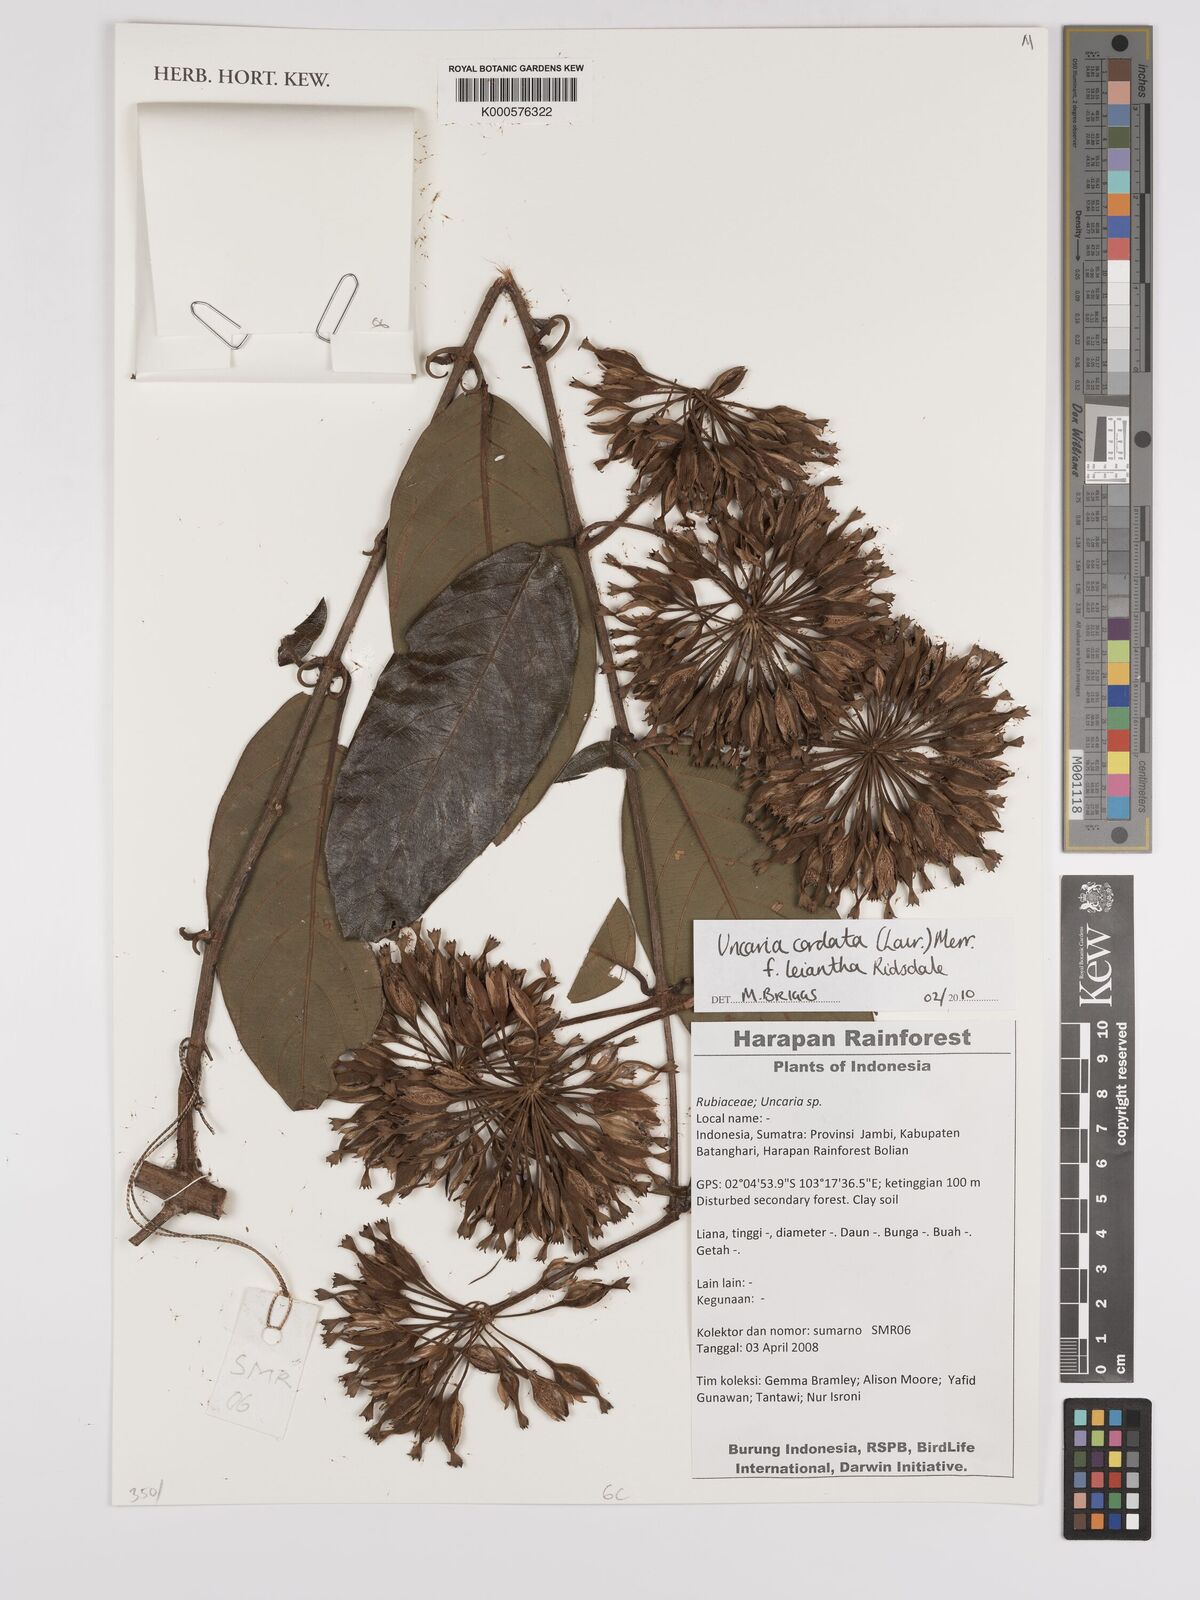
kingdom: Plantae
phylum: Tracheophyta
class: Magnoliopsida
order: Gentianales
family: Rubiaceae
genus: Uncaria
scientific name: Uncaria cordata
